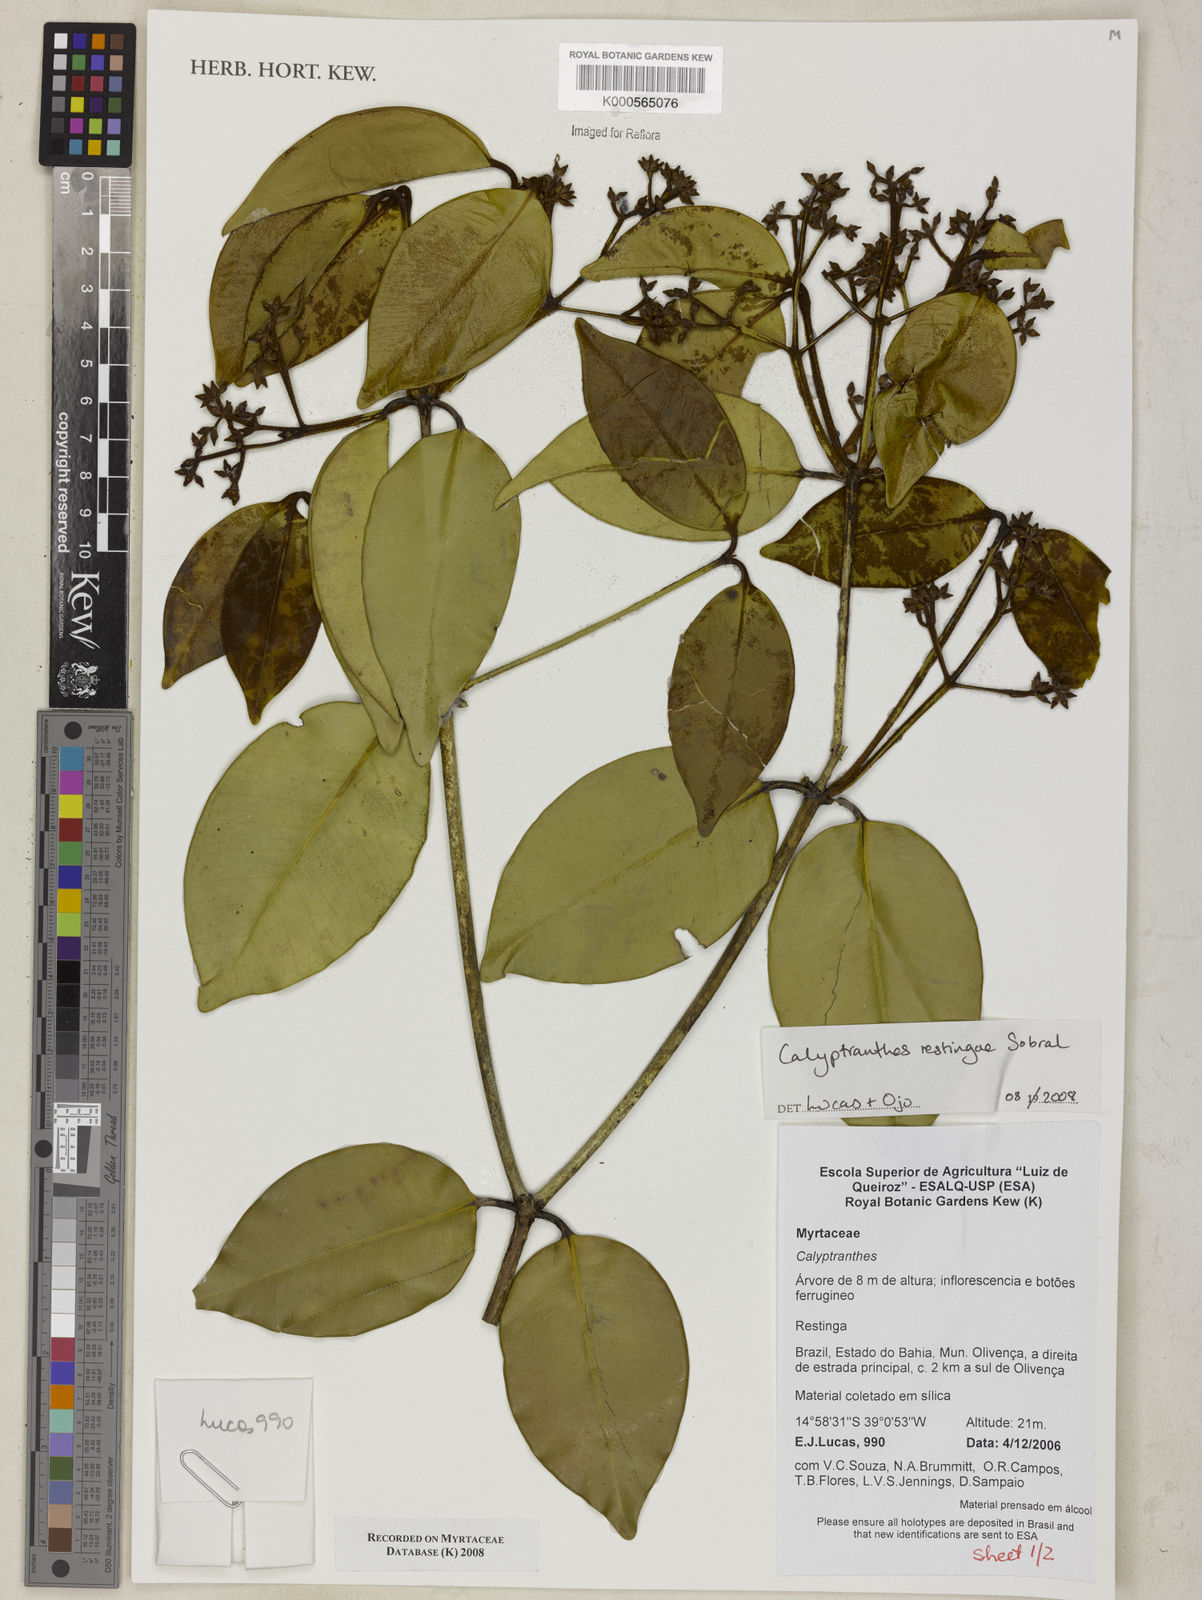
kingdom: Plantae
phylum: Tracheophyta
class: Magnoliopsida
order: Myrtales
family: Myrtaceae
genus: Myrcia
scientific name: Myrcia restingae
